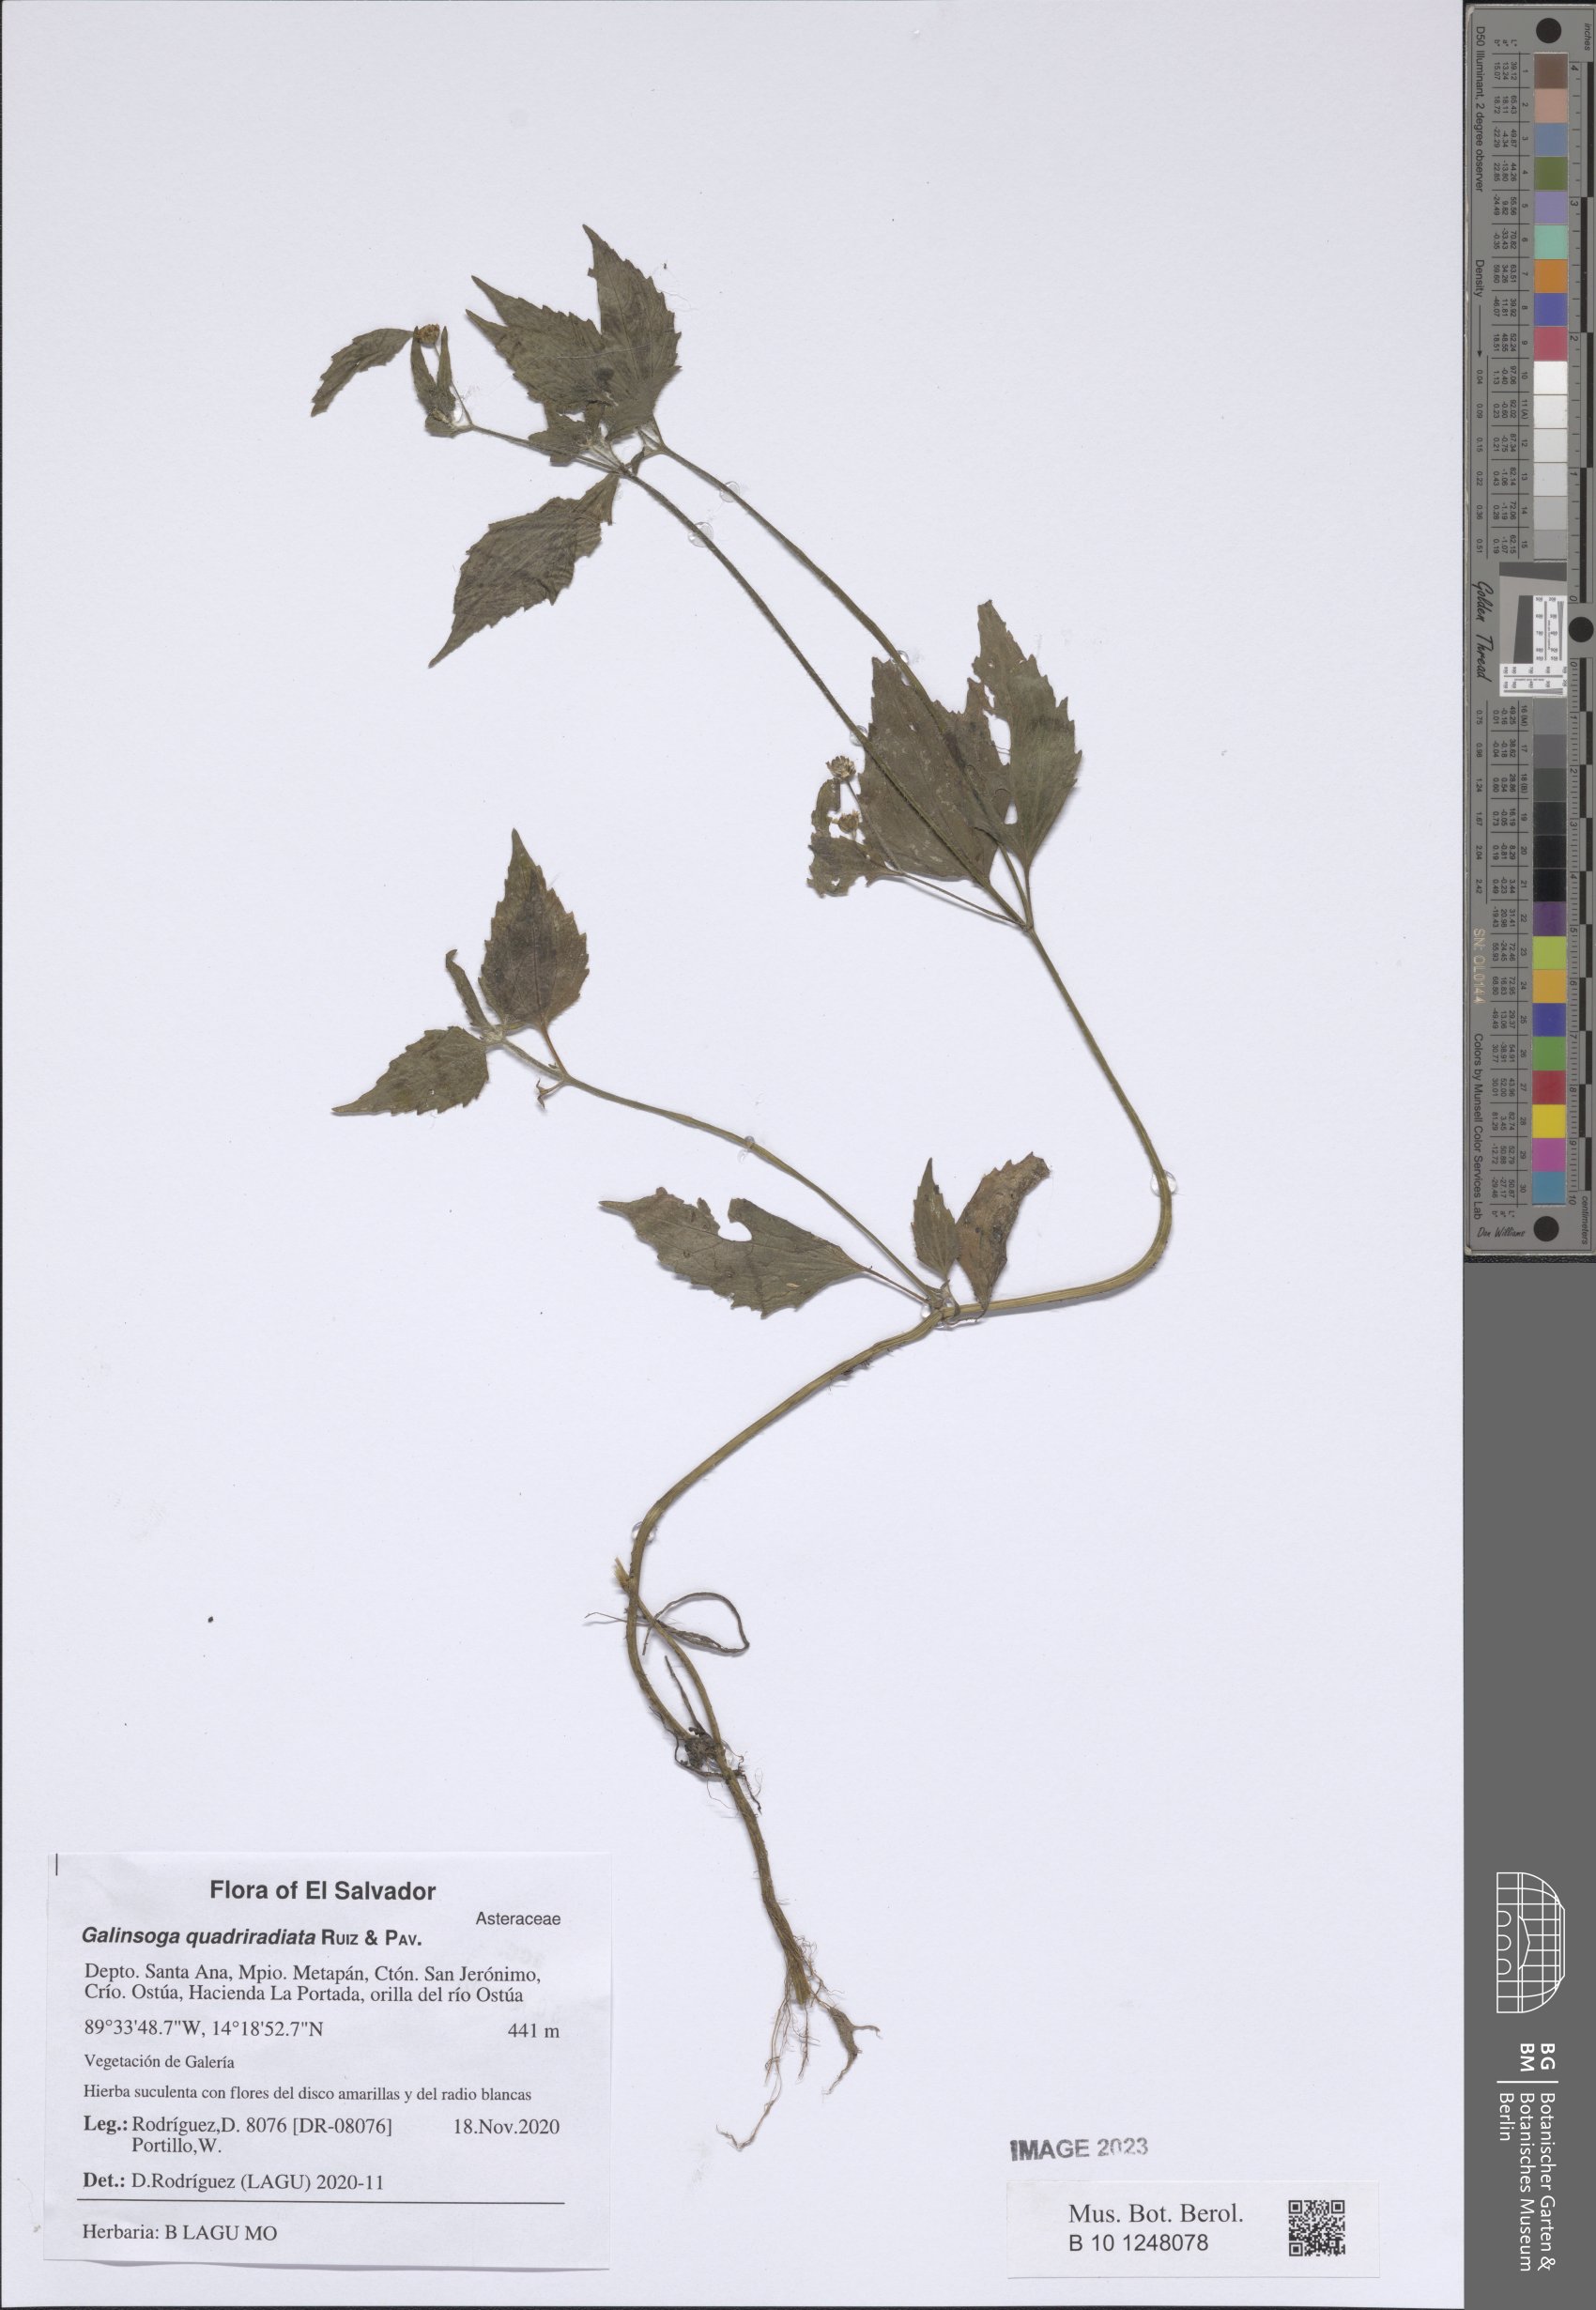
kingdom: Plantae
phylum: Tracheophyta
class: Magnoliopsida
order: Asterales
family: Asteraceae
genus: Galinsoga
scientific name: Galinsoga quadriradiata
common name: Shaggy soldier
